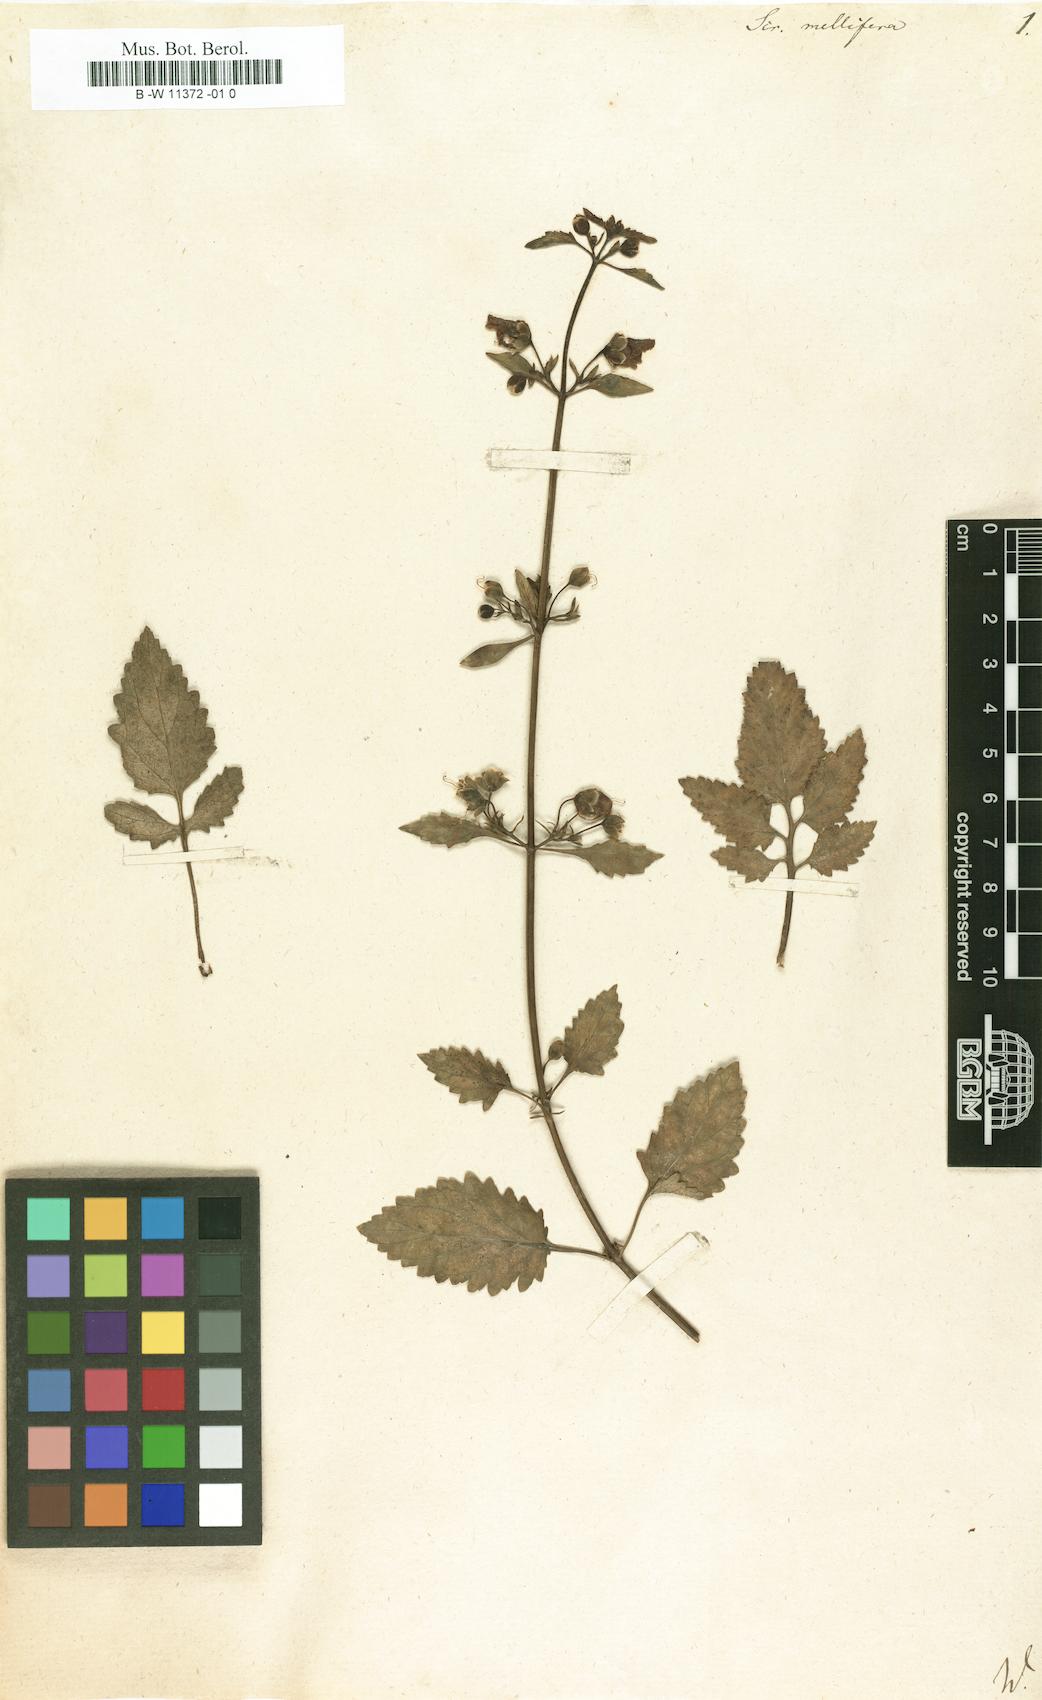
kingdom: Plantae
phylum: Tracheophyta
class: Magnoliopsida
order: Lamiales
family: Scrophulariaceae
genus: Scrophularia
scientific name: Scrophularia
